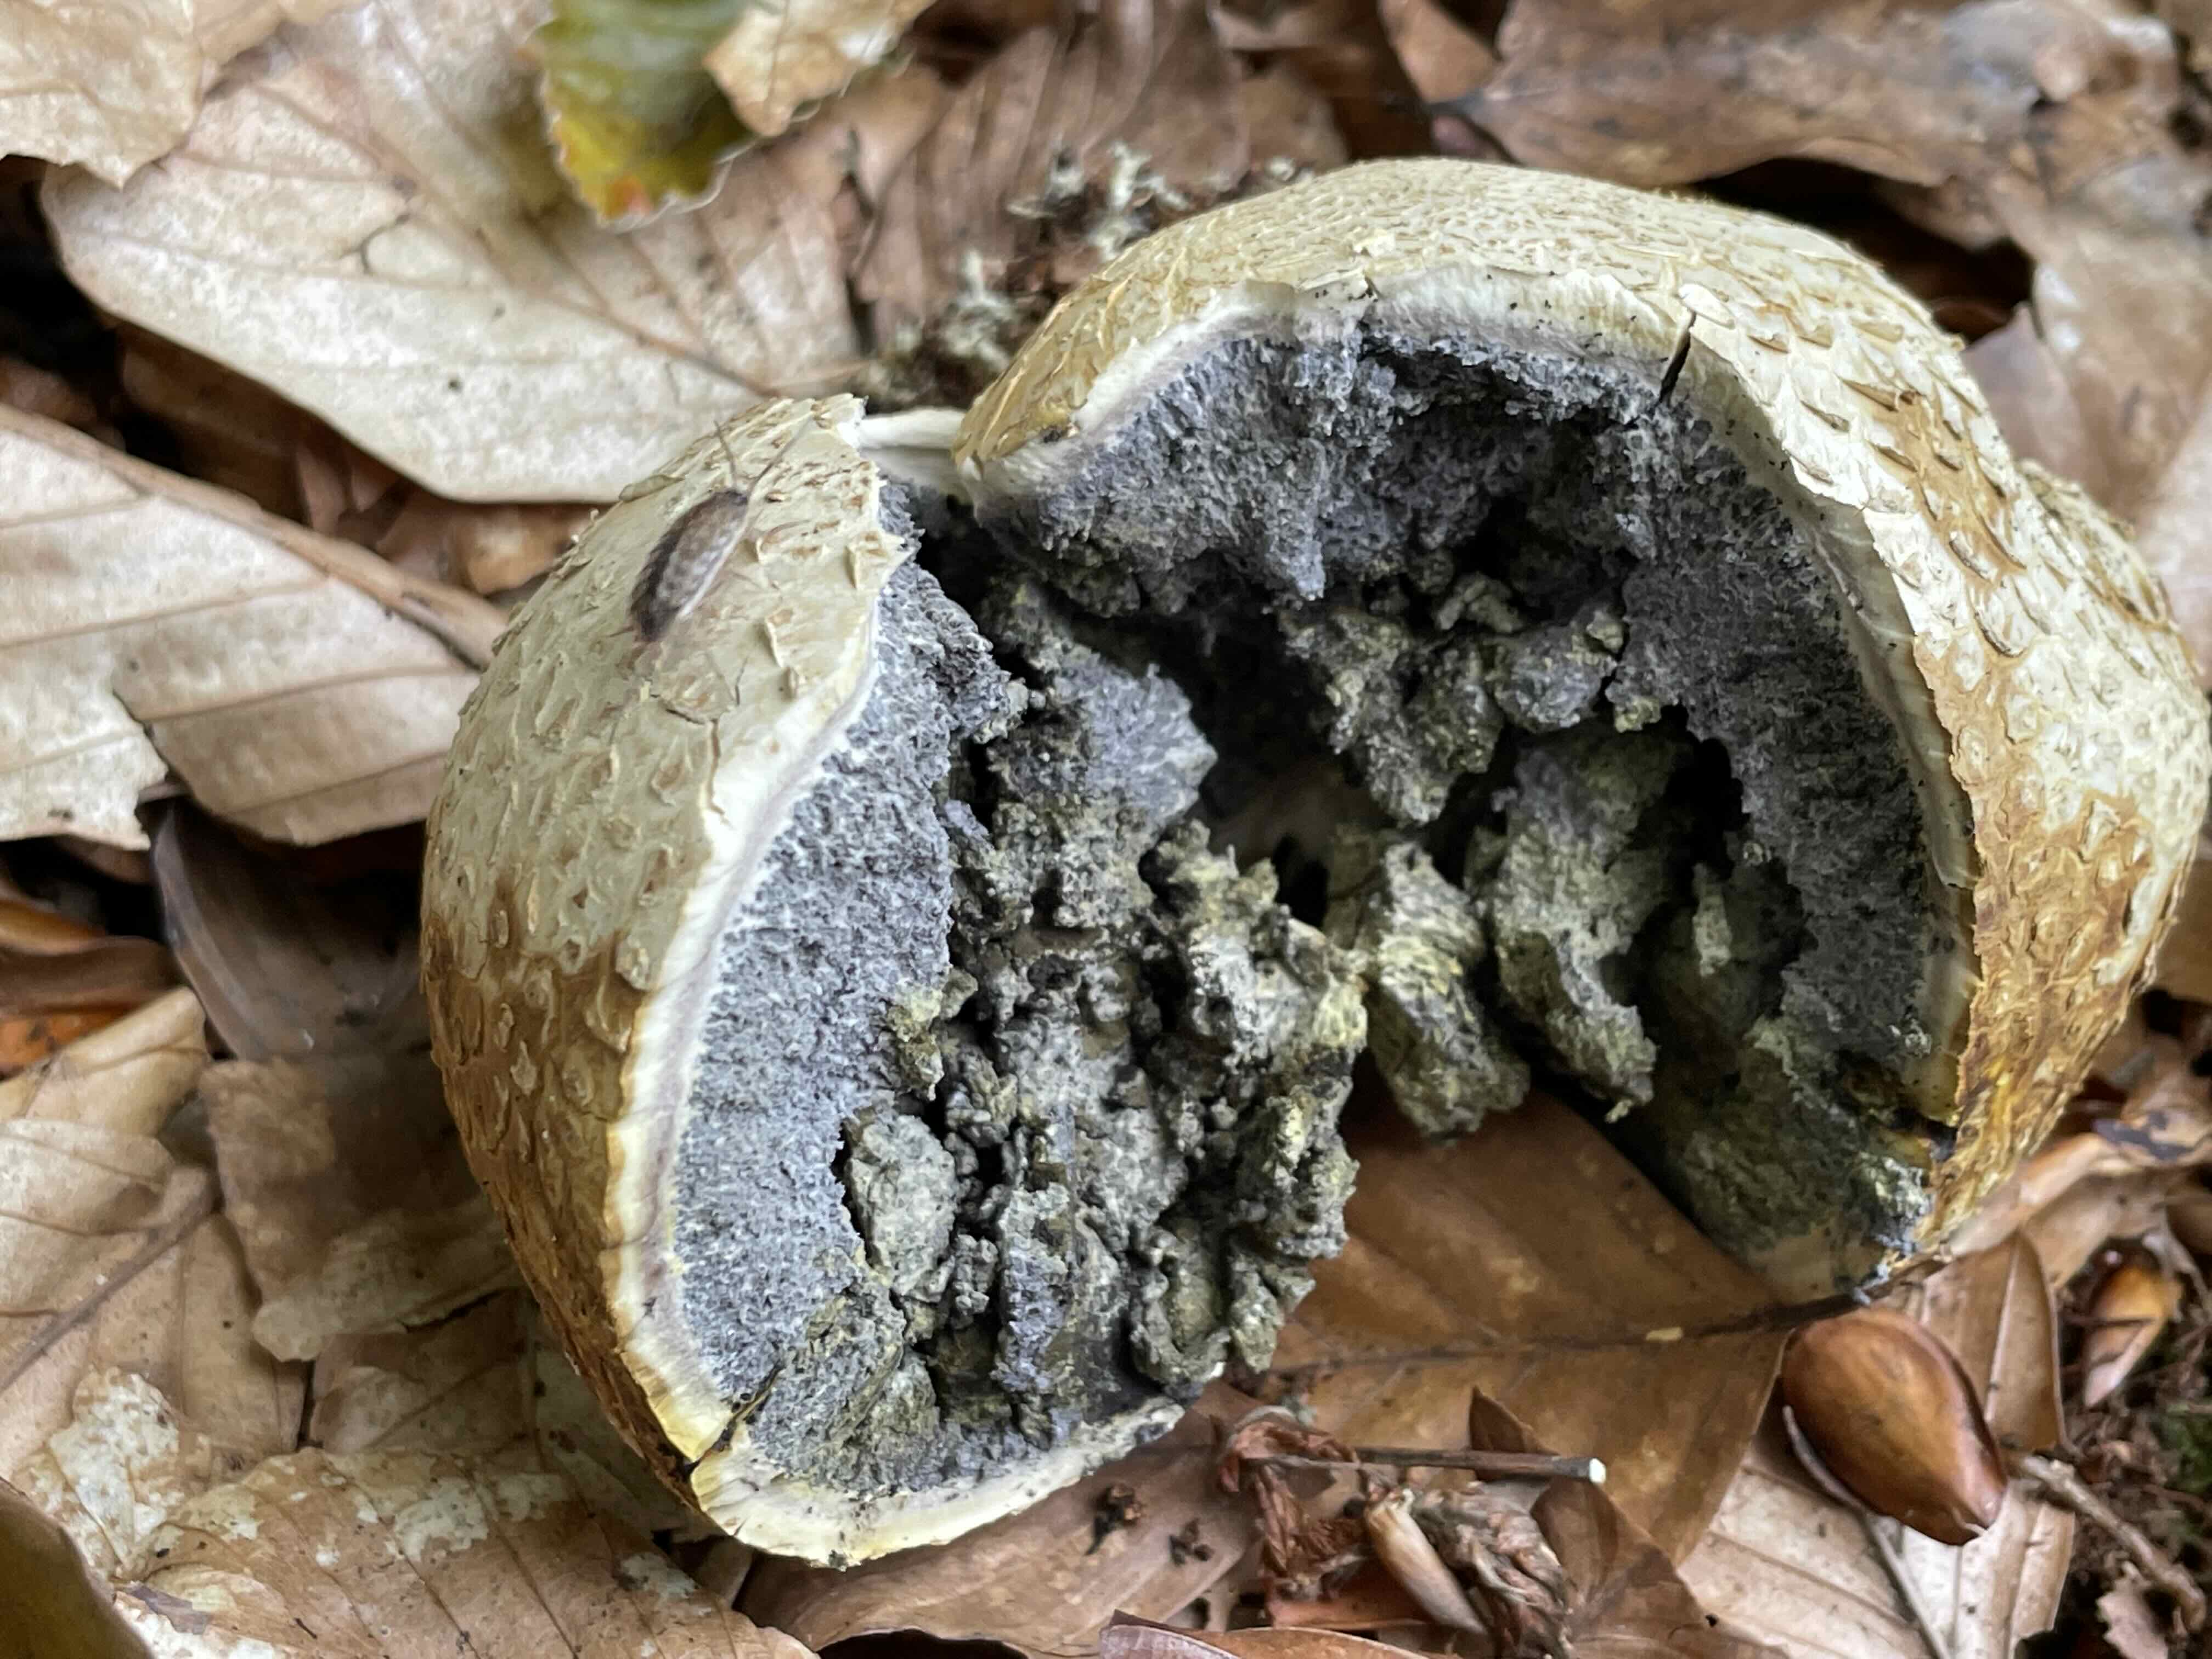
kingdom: Fungi
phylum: Basidiomycota
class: Agaricomycetes
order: Boletales
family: Sclerodermataceae
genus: Scleroderma
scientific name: Scleroderma citrinum
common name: almindelig bruskbold
